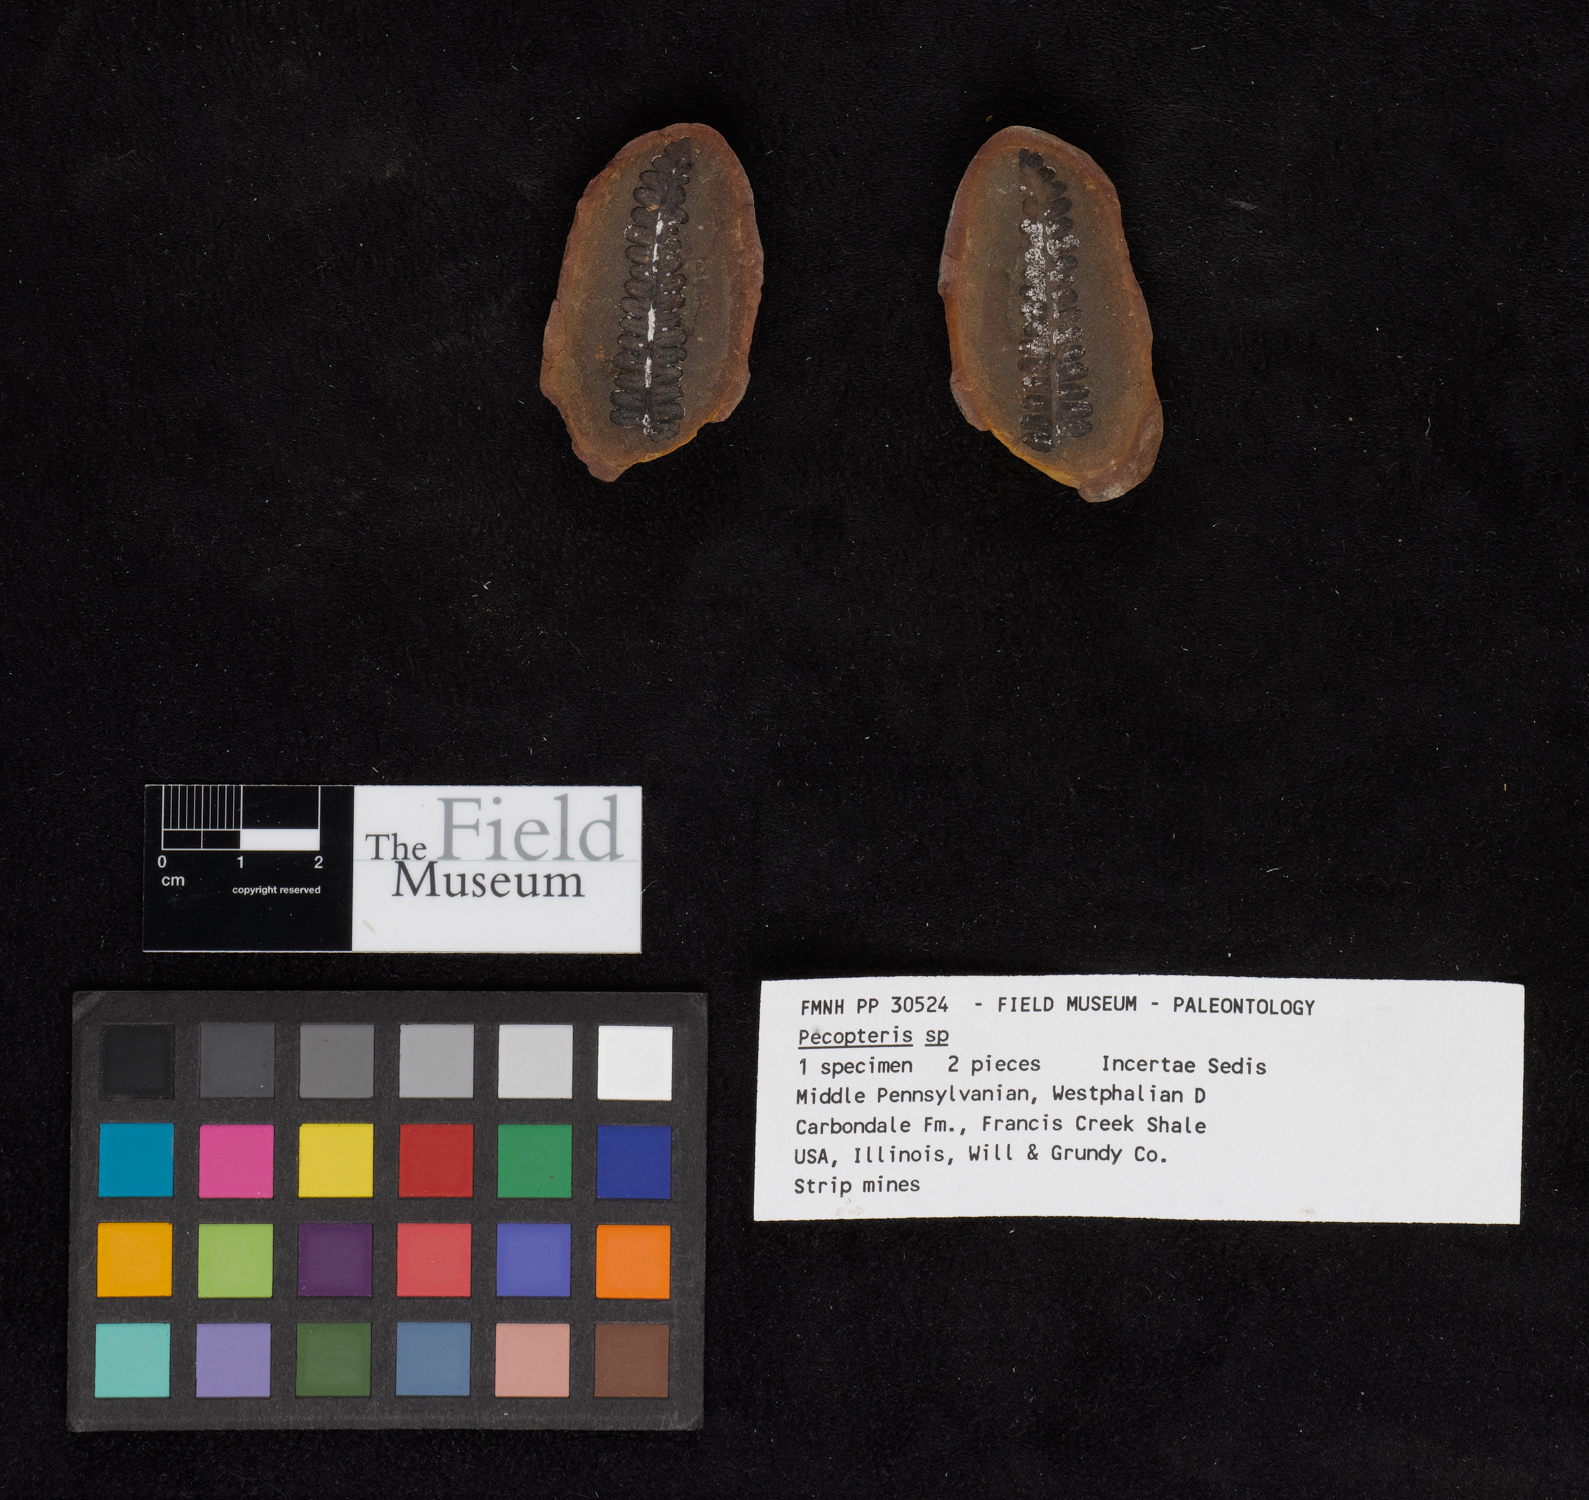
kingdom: Plantae
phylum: Tracheophyta
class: Polypodiopsida
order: Marattiales
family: Asterothecaceae
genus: Pecopteris
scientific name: Pecopteris
